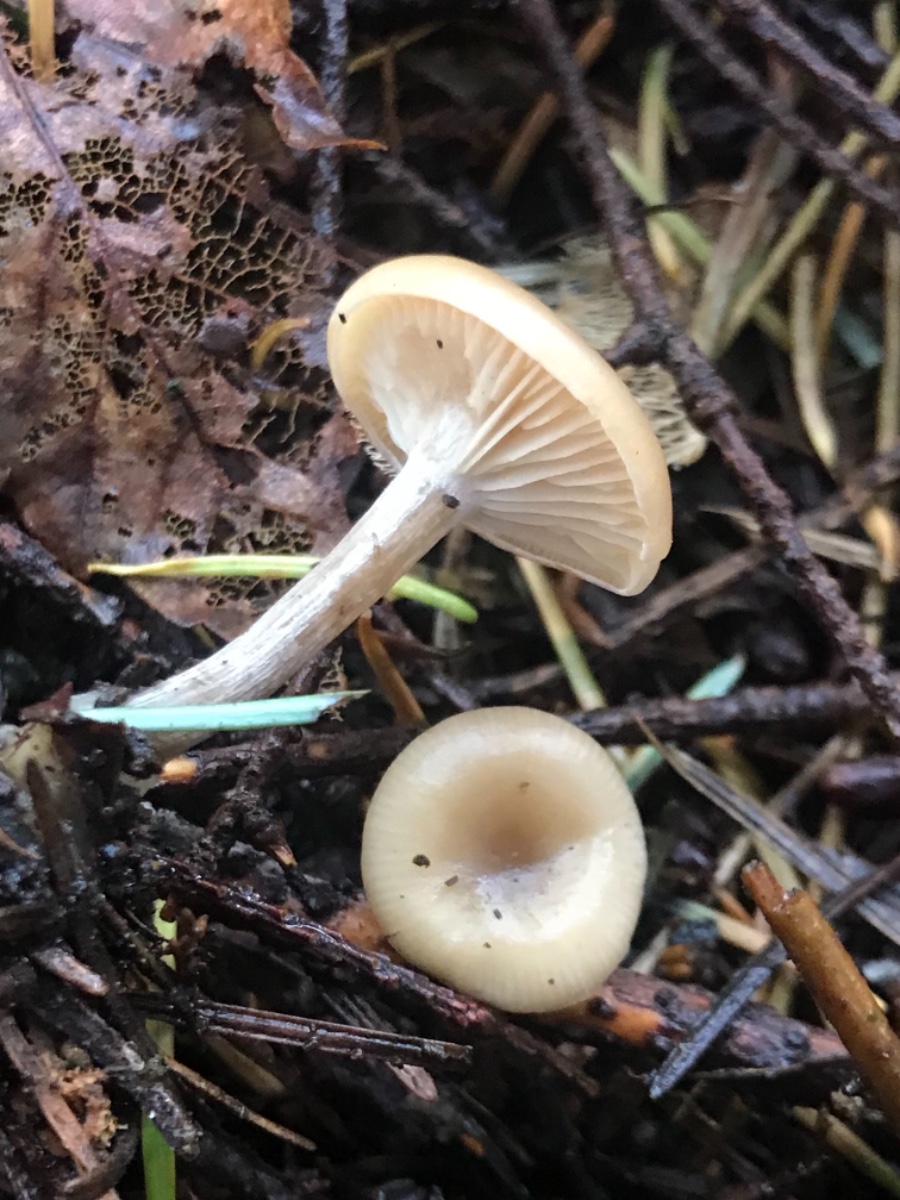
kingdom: Fungi
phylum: Basidiomycota
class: Agaricomycetes
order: Agaricales
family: Tricholomataceae
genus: Clitocybe
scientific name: Clitocybe metachroa
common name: grå tragthat
